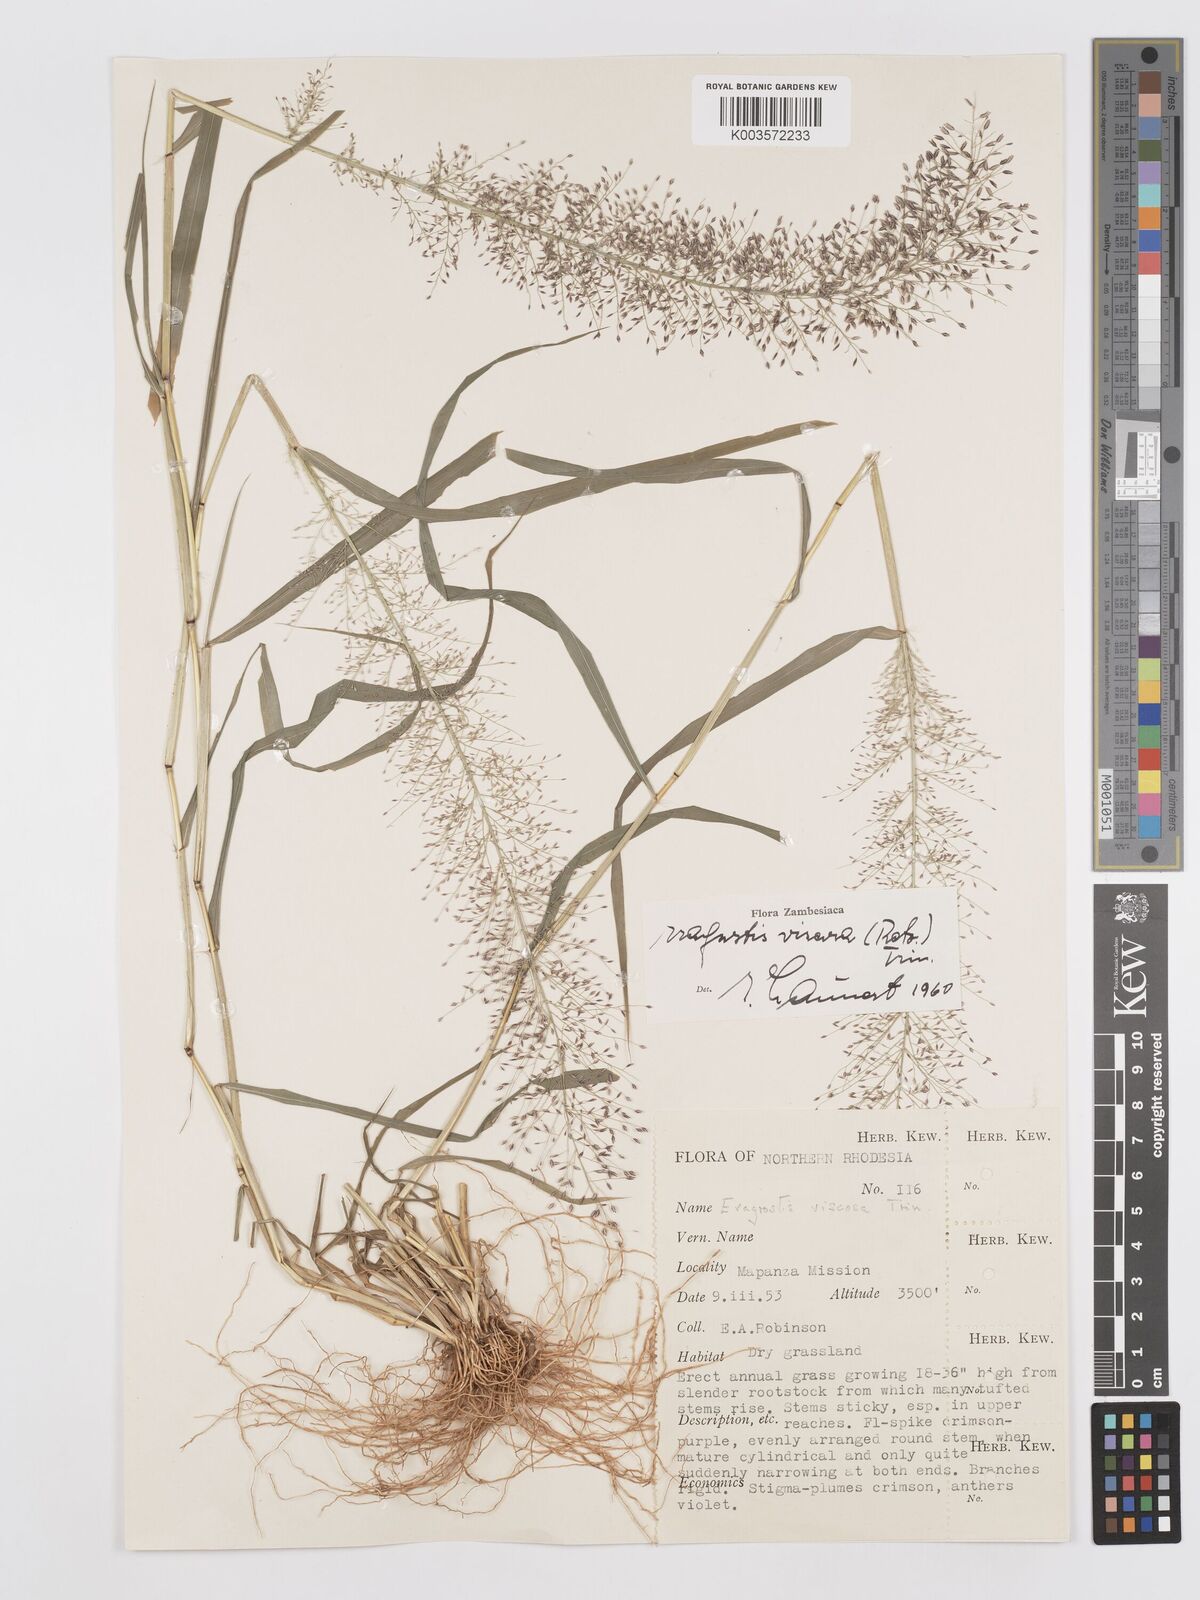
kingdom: Plantae
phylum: Tracheophyta
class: Liliopsida
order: Poales
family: Poaceae
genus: Eragrostis
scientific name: Eragrostis
